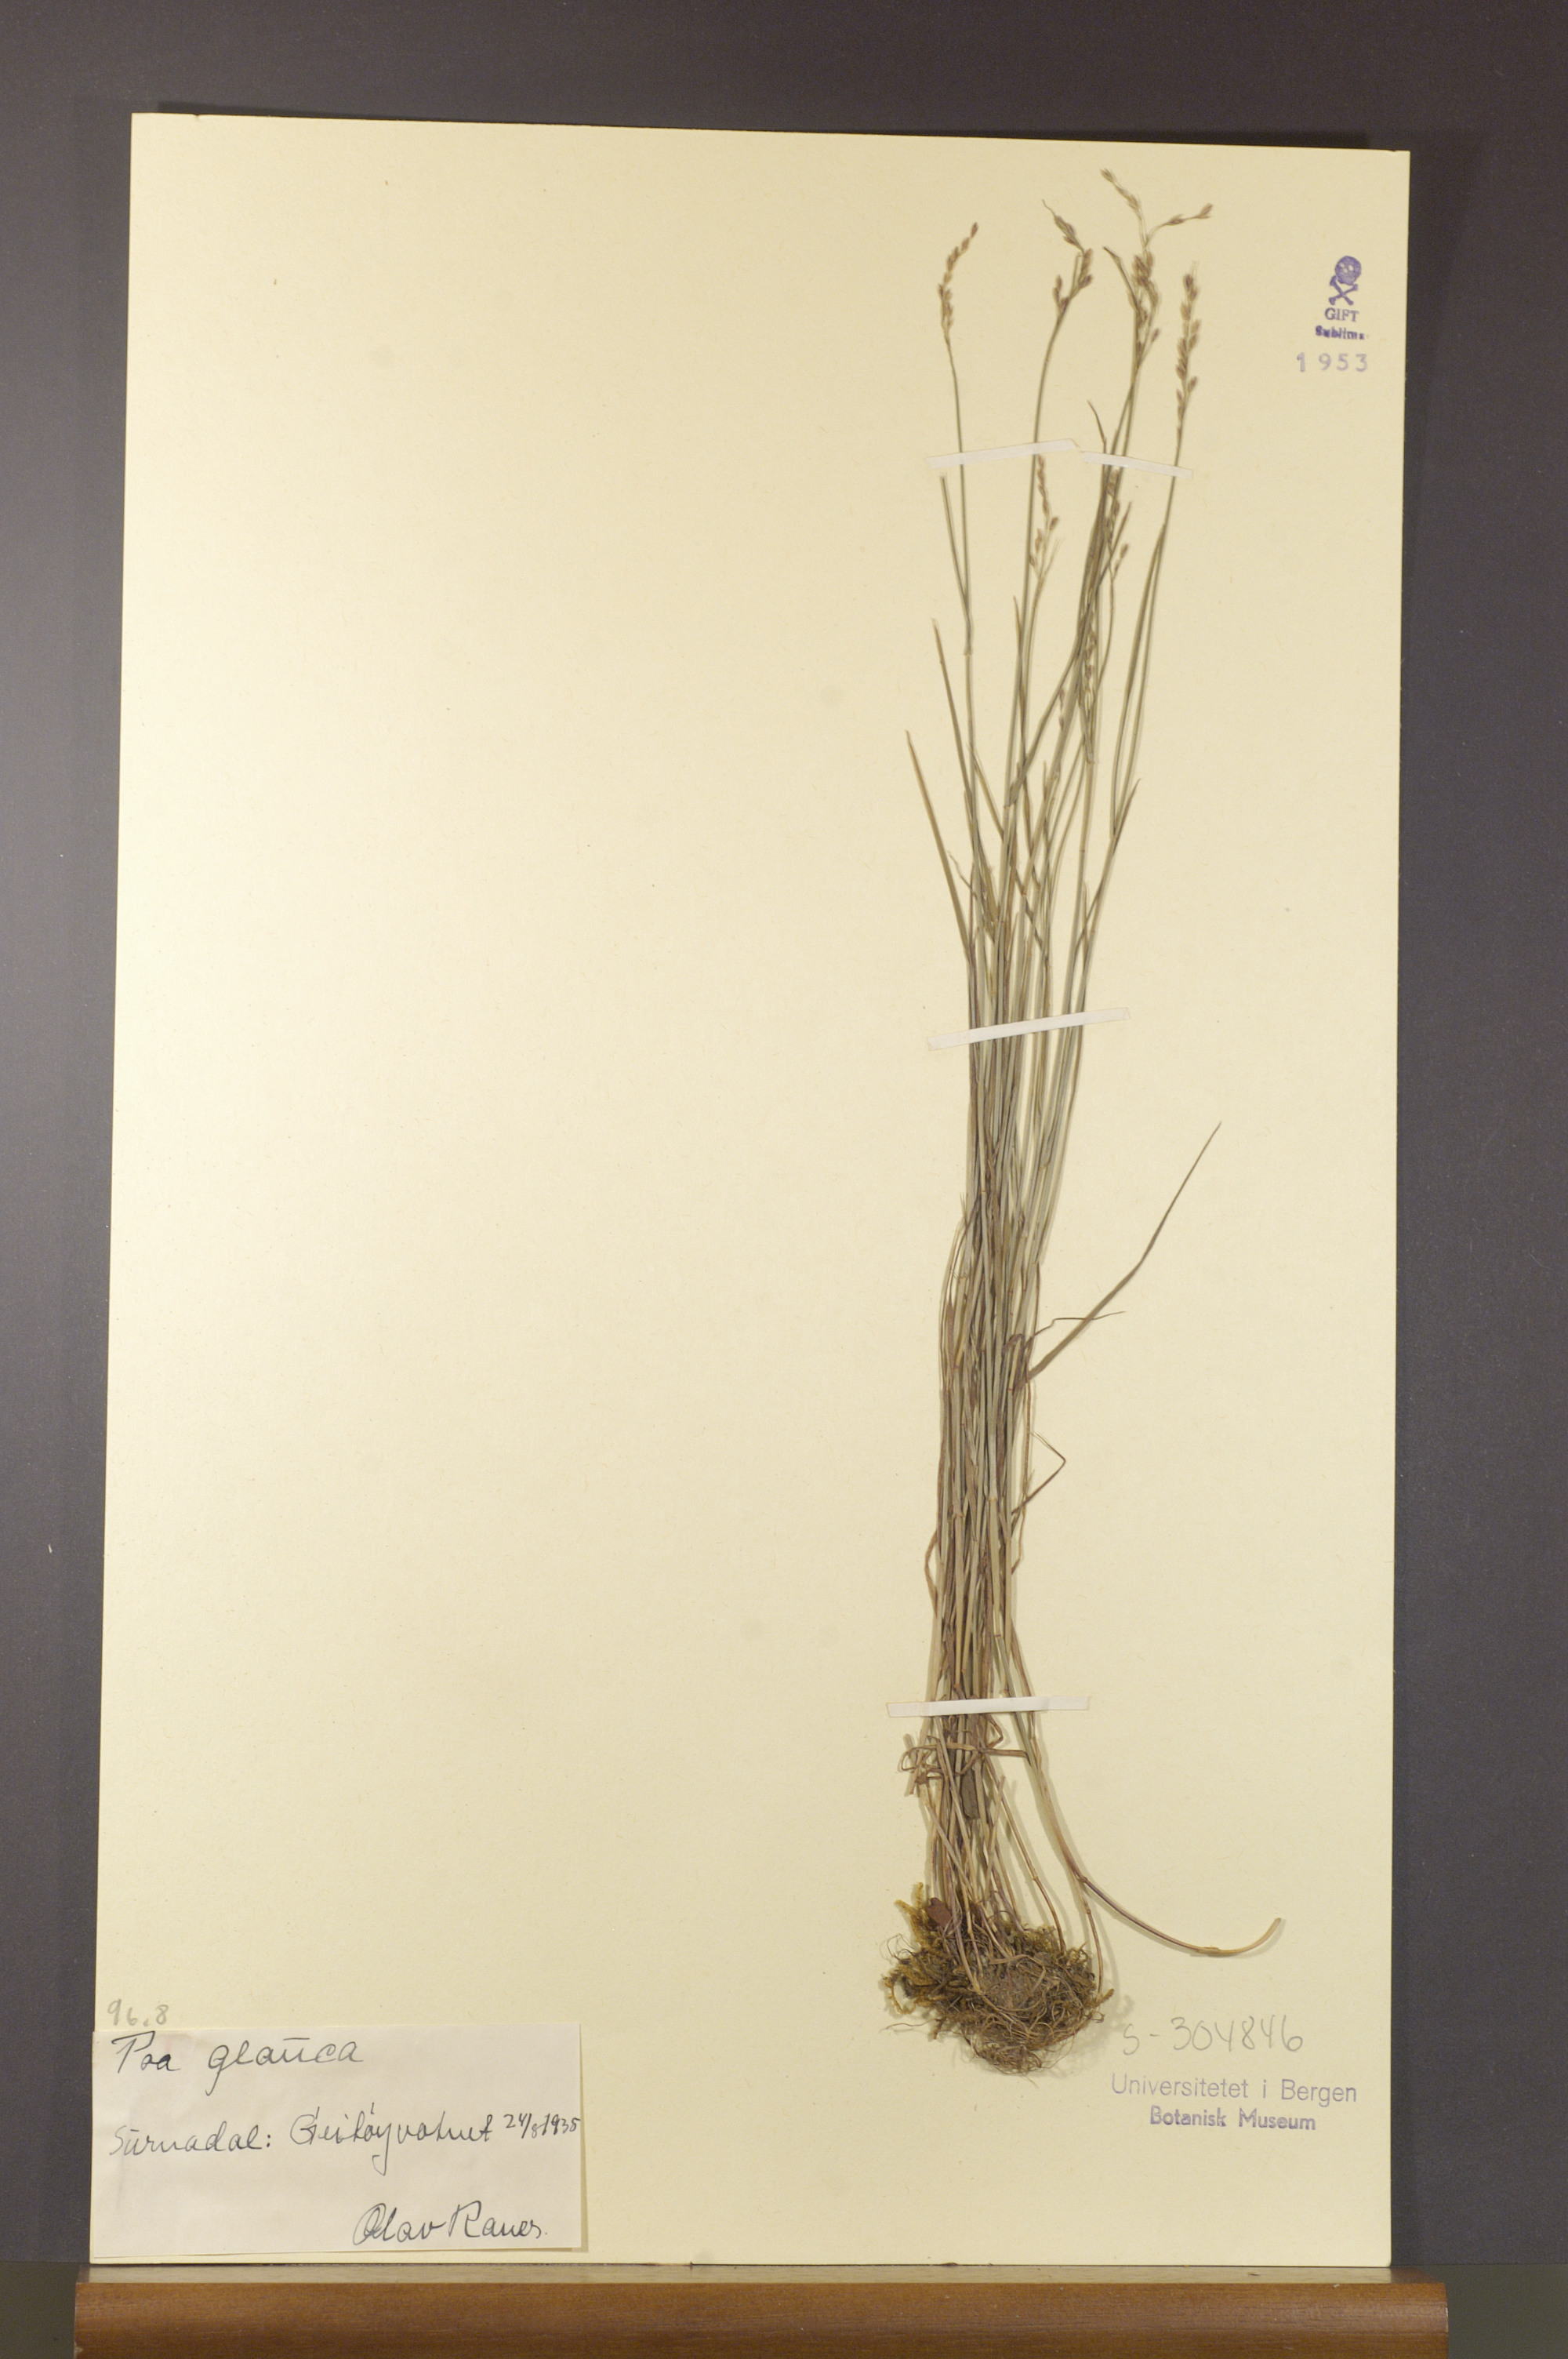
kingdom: Plantae
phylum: Tracheophyta
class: Liliopsida
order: Poales
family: Poaceae
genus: Poa
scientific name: Poa glauca
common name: Glaucous bluegrass
